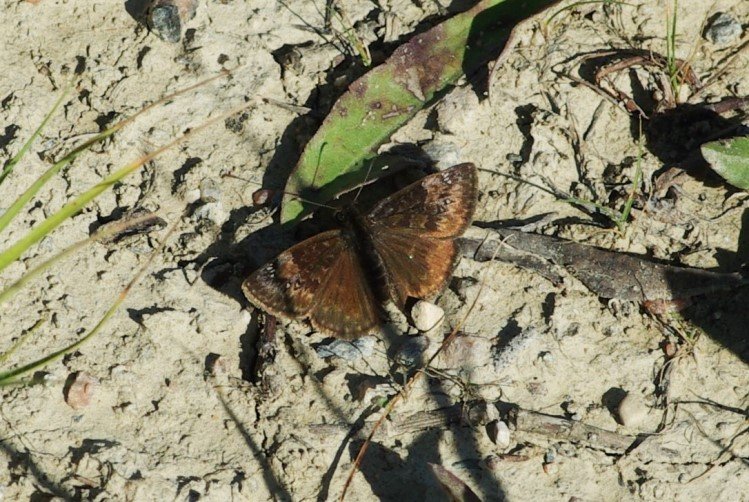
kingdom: Animalia
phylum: Arthropoda
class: Insecta
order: Lepidoptera
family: Hesperiidae
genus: Gesta
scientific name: Gesta
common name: Columbine Duskywing
